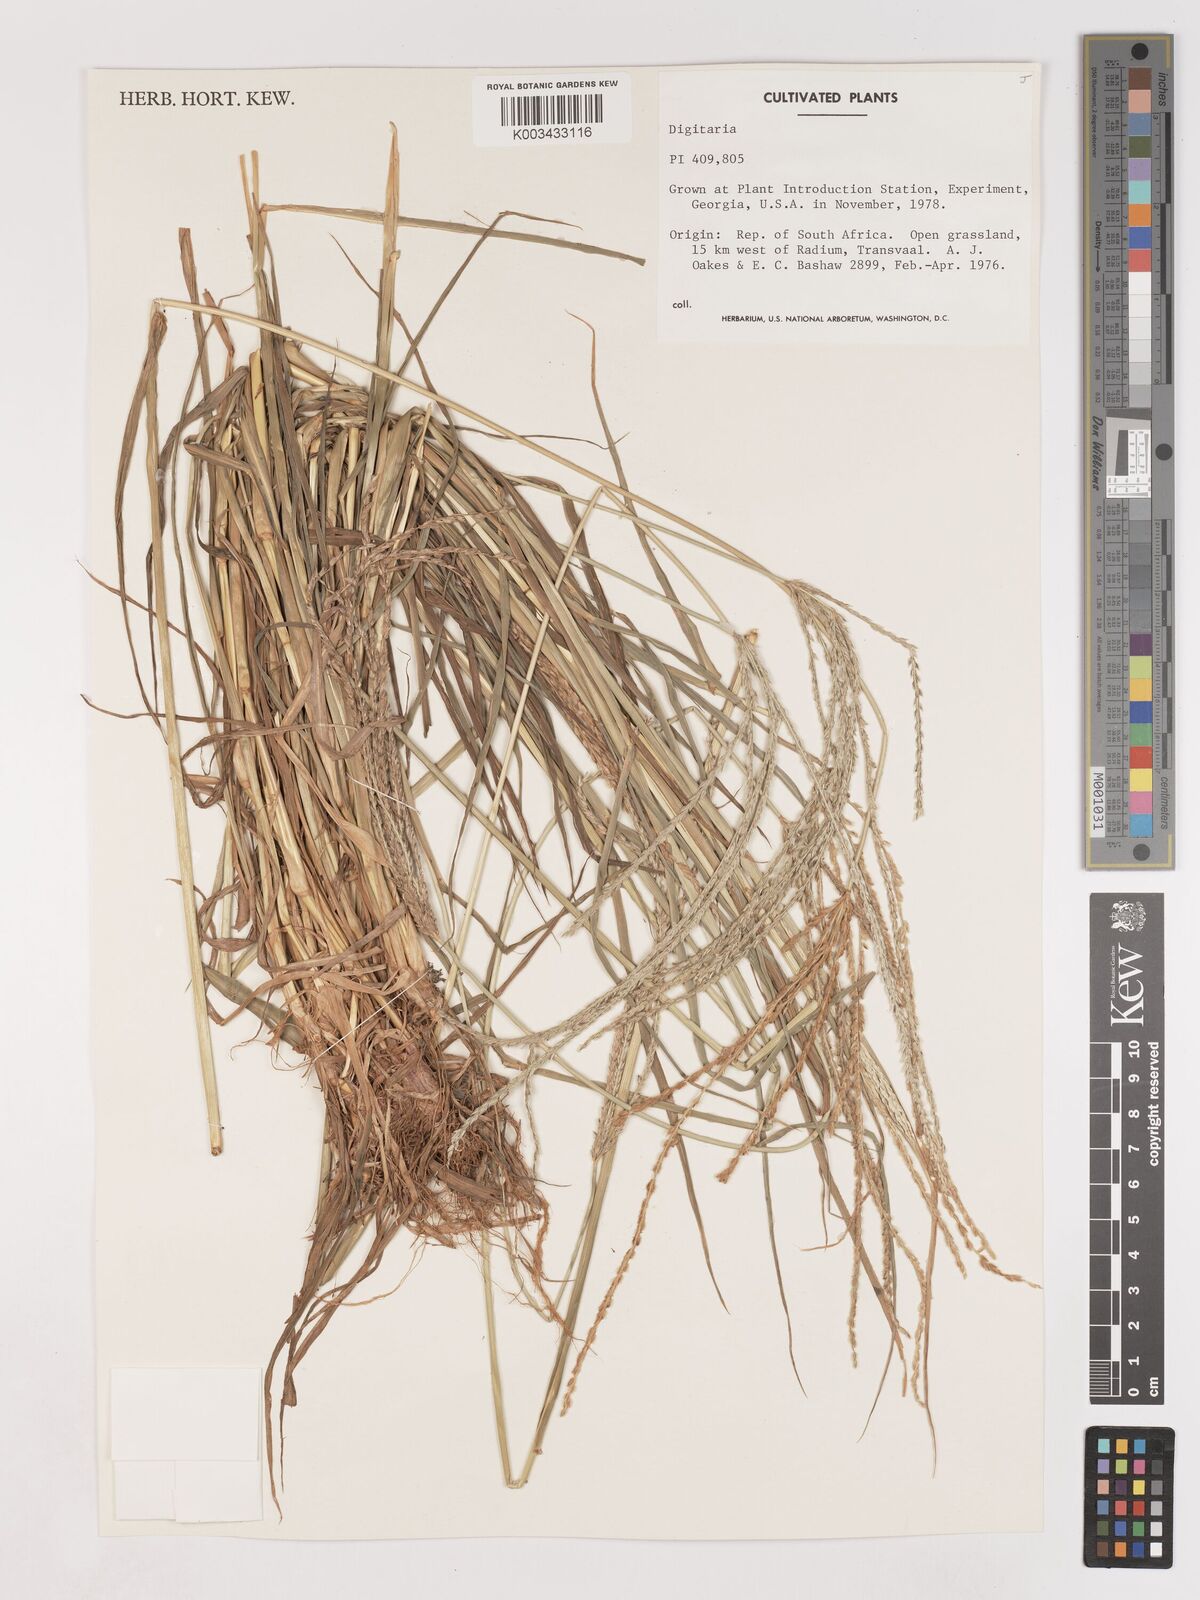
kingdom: Plantae
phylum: Tracheophyta
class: Liliopsida
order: Poales
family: Poaceae
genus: Digitaria
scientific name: Digitaria milanjiana
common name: Madagascar crabgrass
